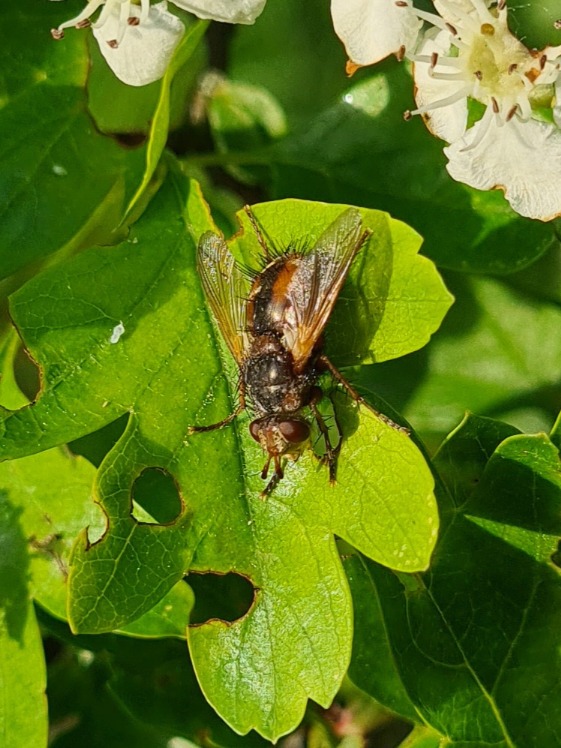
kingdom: Animalia
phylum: Arthropoda
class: Insecta
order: Diptera
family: Tachinidae
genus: Tachina
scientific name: Tachina fera
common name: Mellemfluen oskar
